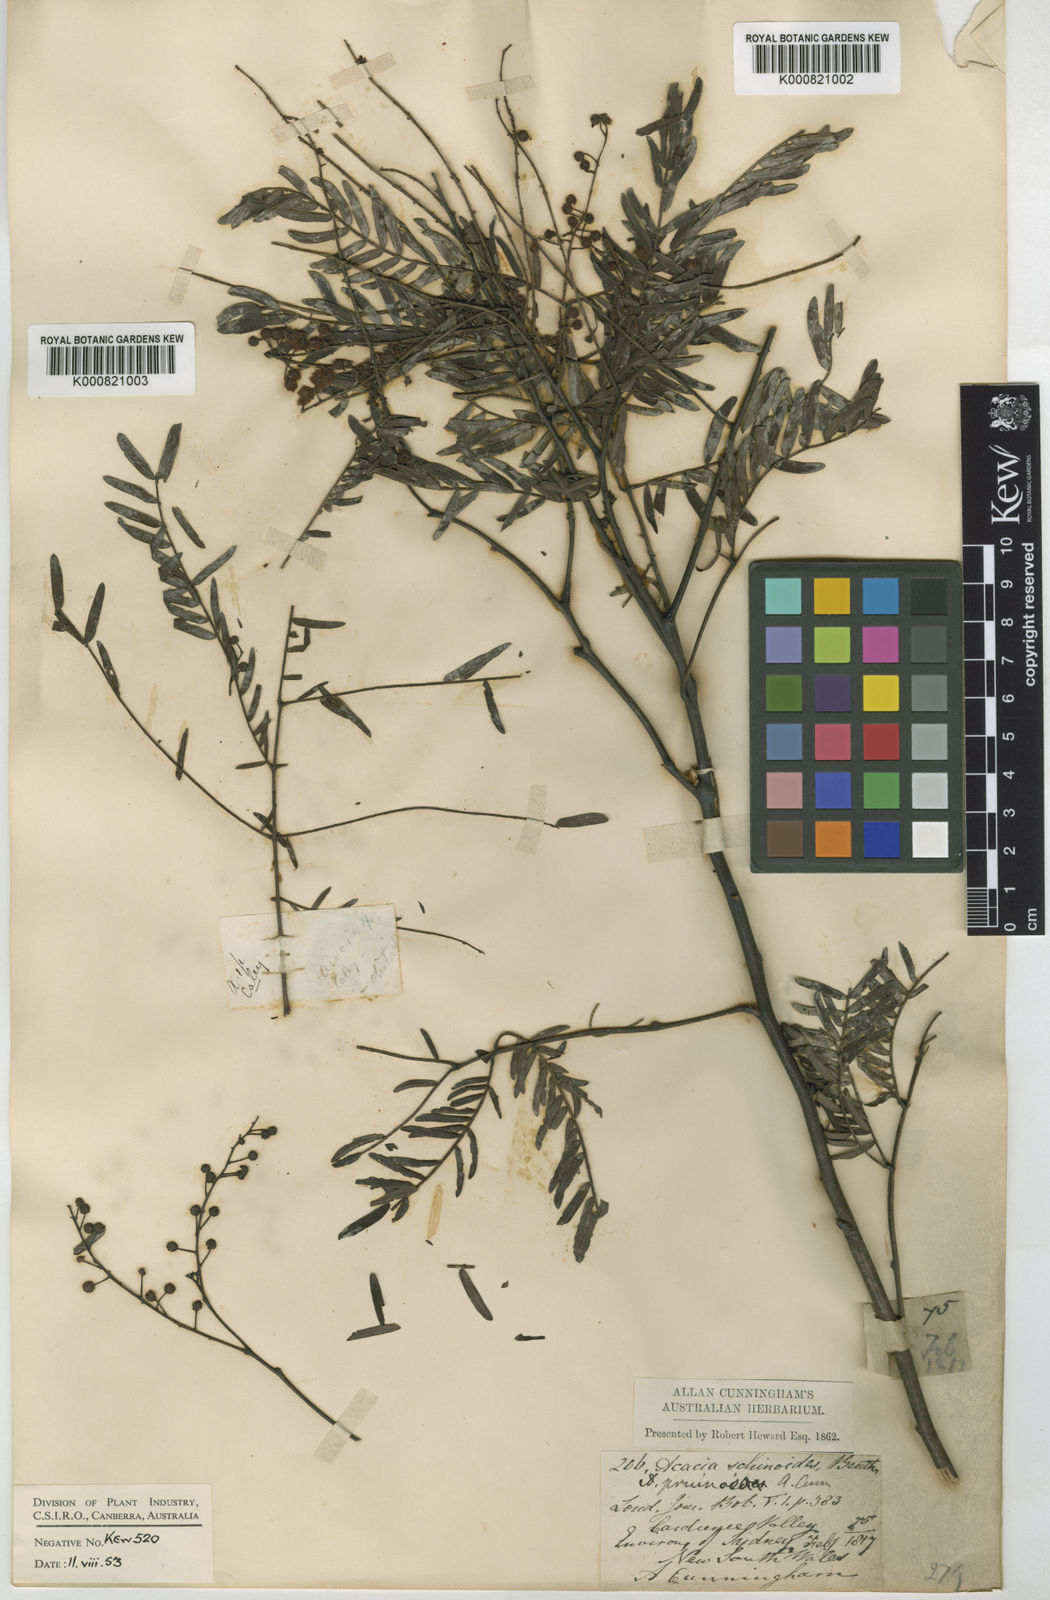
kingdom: Plantae
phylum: Tracheophyta
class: Magnoliopsida
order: Fabales
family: Fabaceae
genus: Acacia
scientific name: Acacia schinoides
